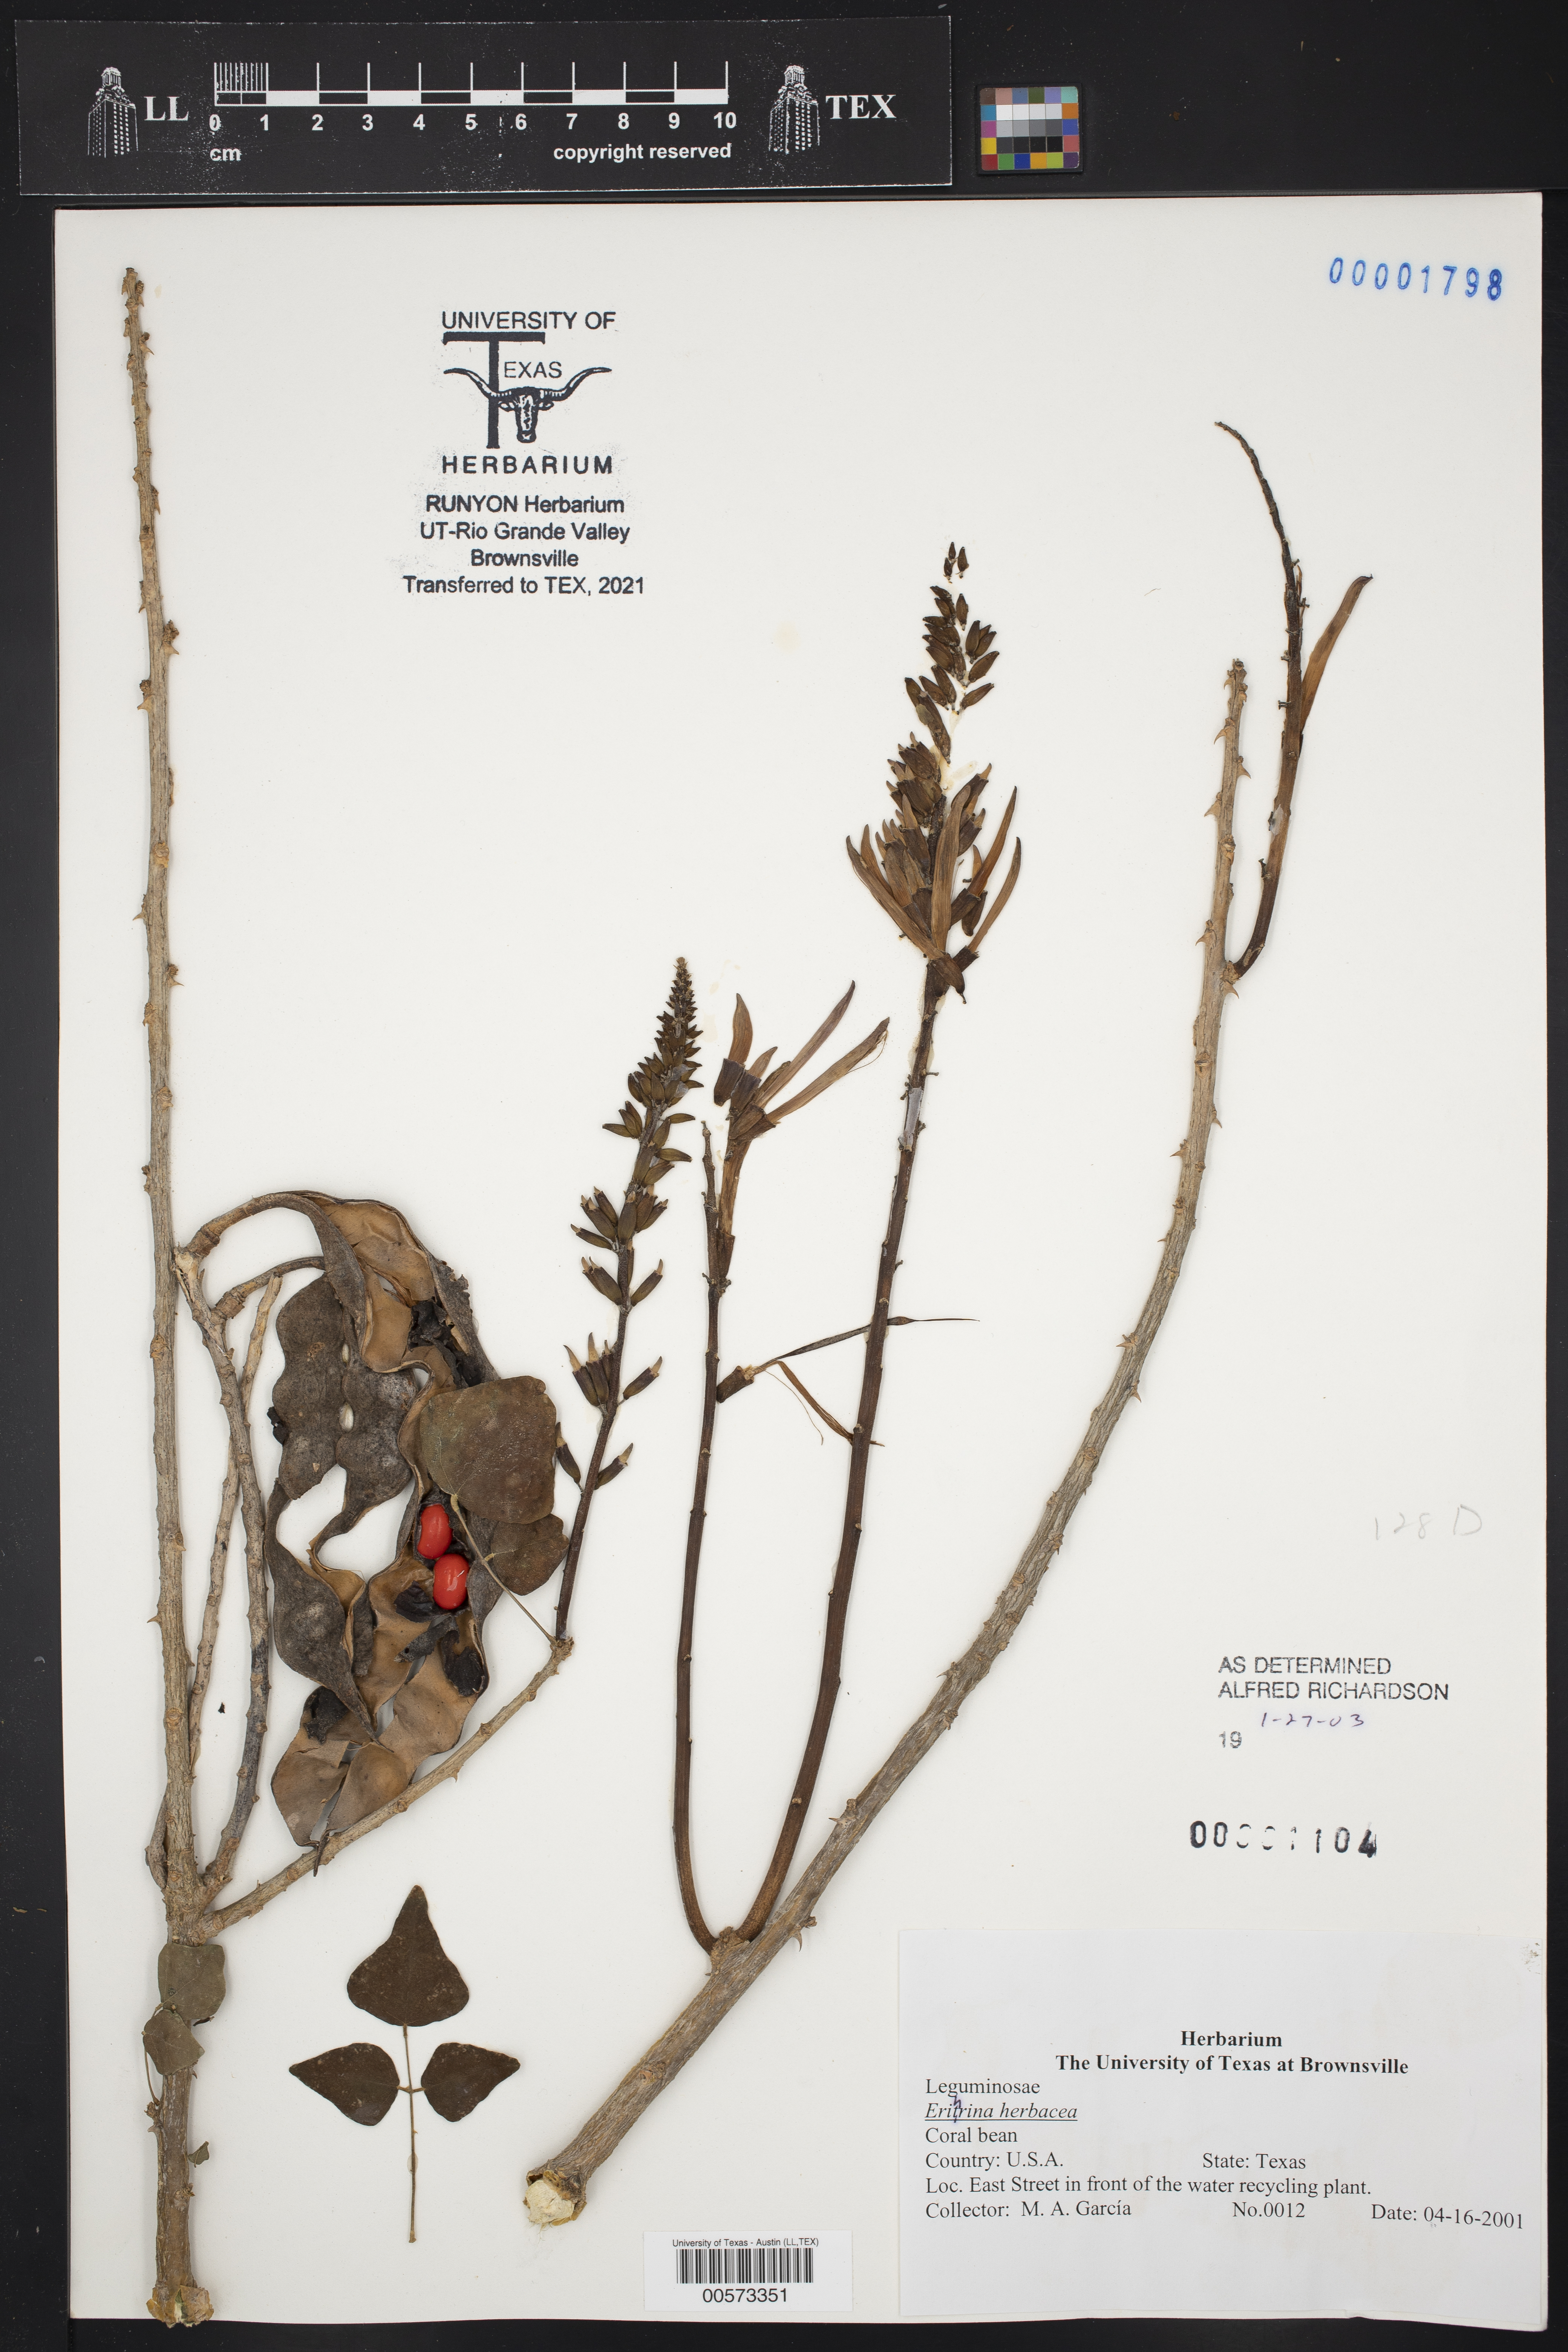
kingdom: Plantae
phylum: Tracheophyta
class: Magnoliopsida
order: Fabales
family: Fabaceae
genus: Erythrina
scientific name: Erythrina herbacea
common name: Coral-bean
